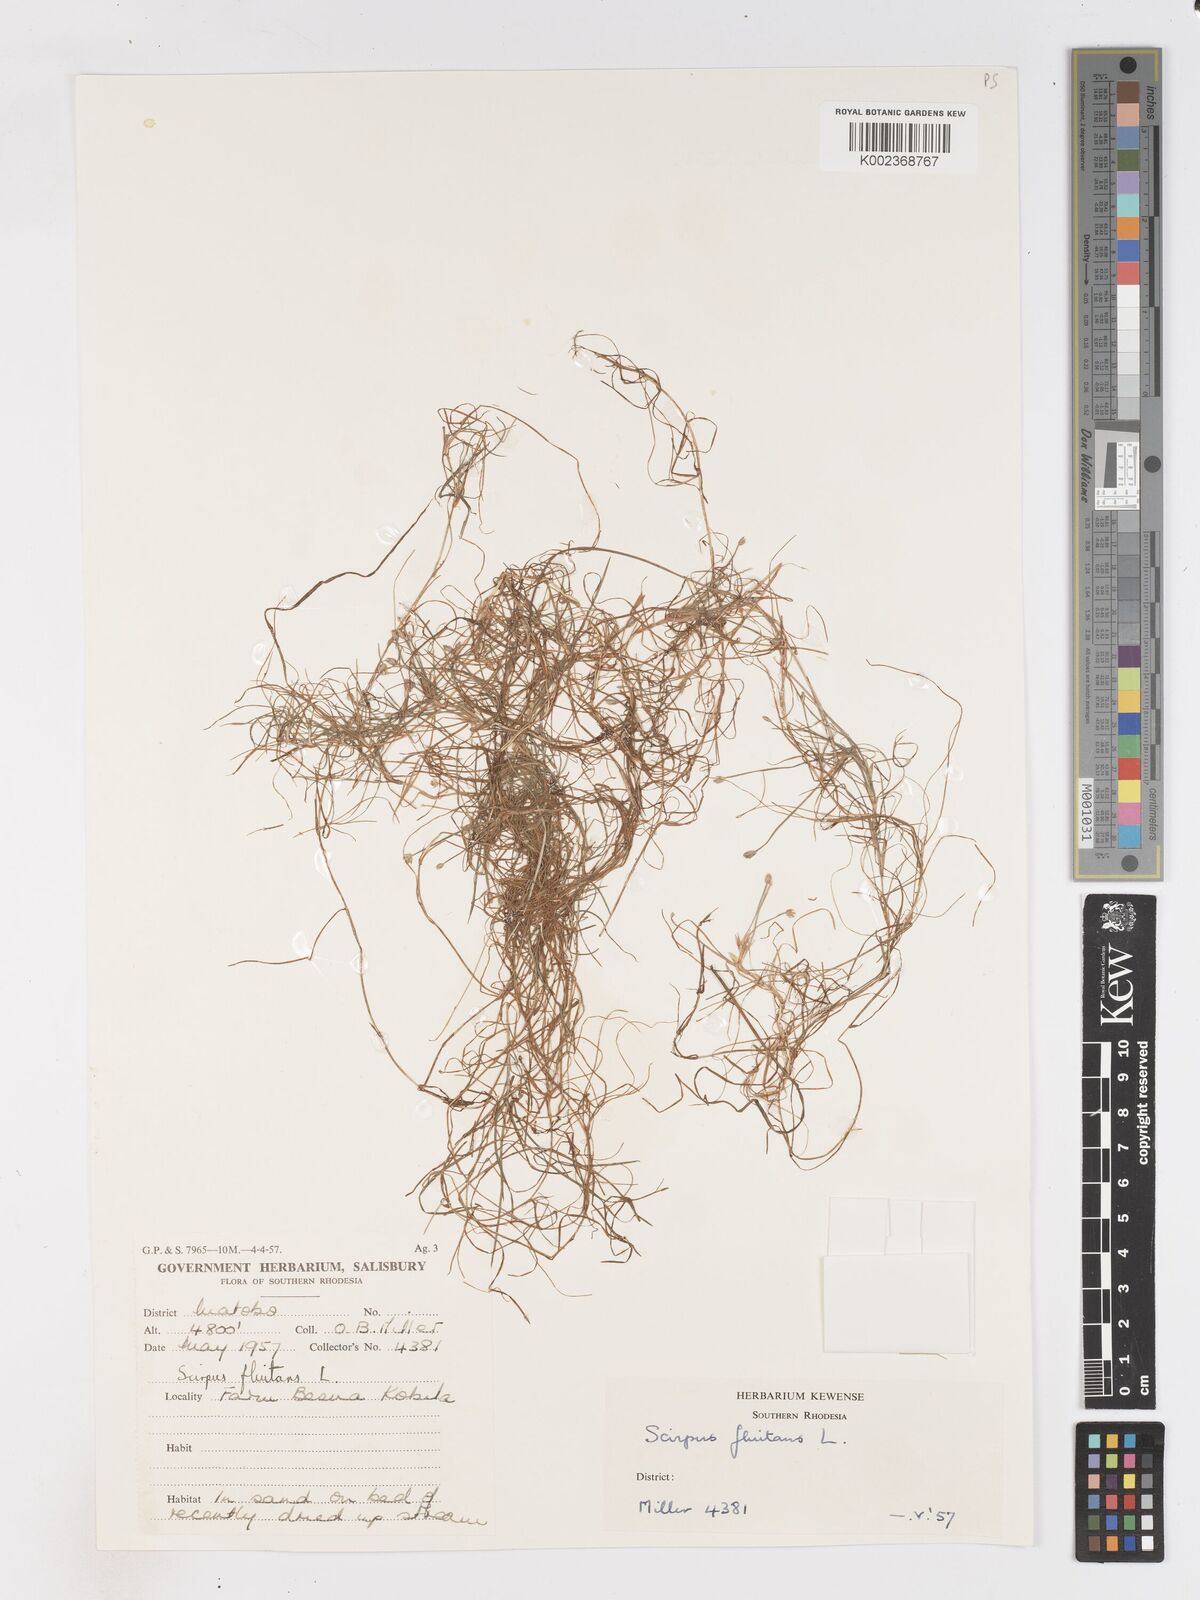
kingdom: Plantae
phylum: Tracheophyta
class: Liliopsida
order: Poales
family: Cyperaceae
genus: Isolepis
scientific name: Isolepis fluitans
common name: Floating club-rush
